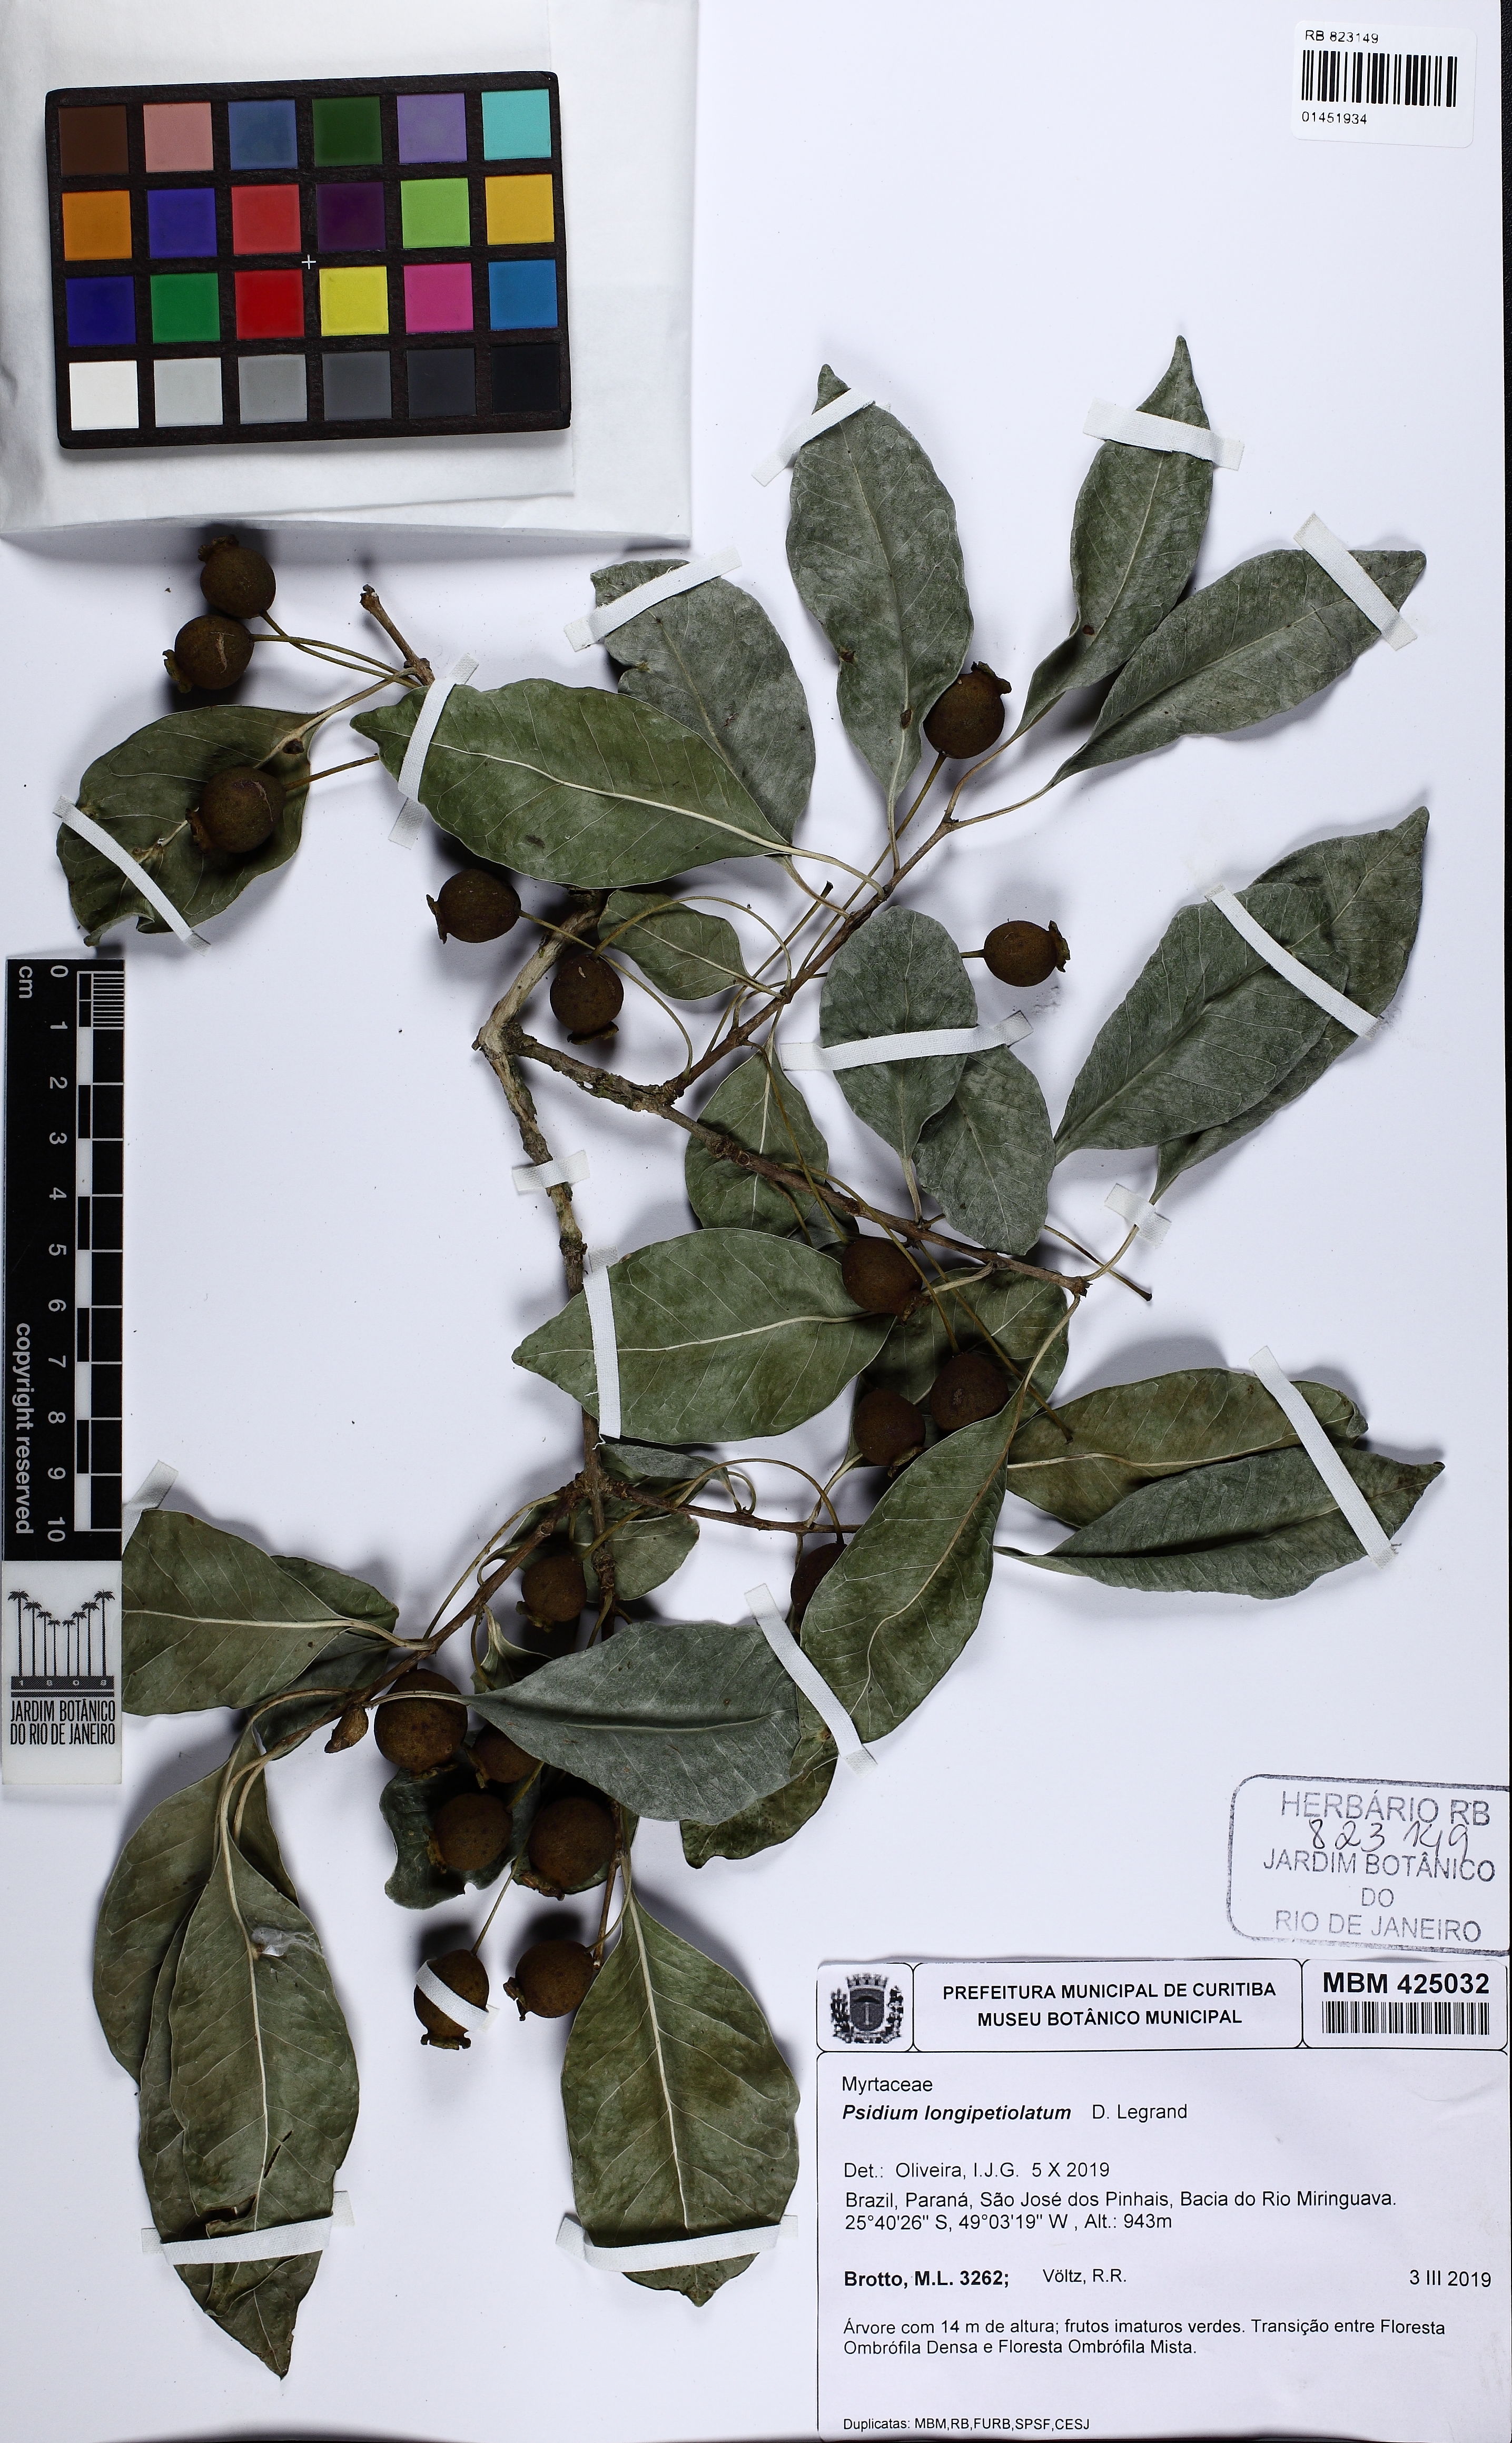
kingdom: Plantae
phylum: Tracheophyta
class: Magnoliopsida
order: Myrtales
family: Myrtaceae
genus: Psidium
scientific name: Psidium longipetiolatum
